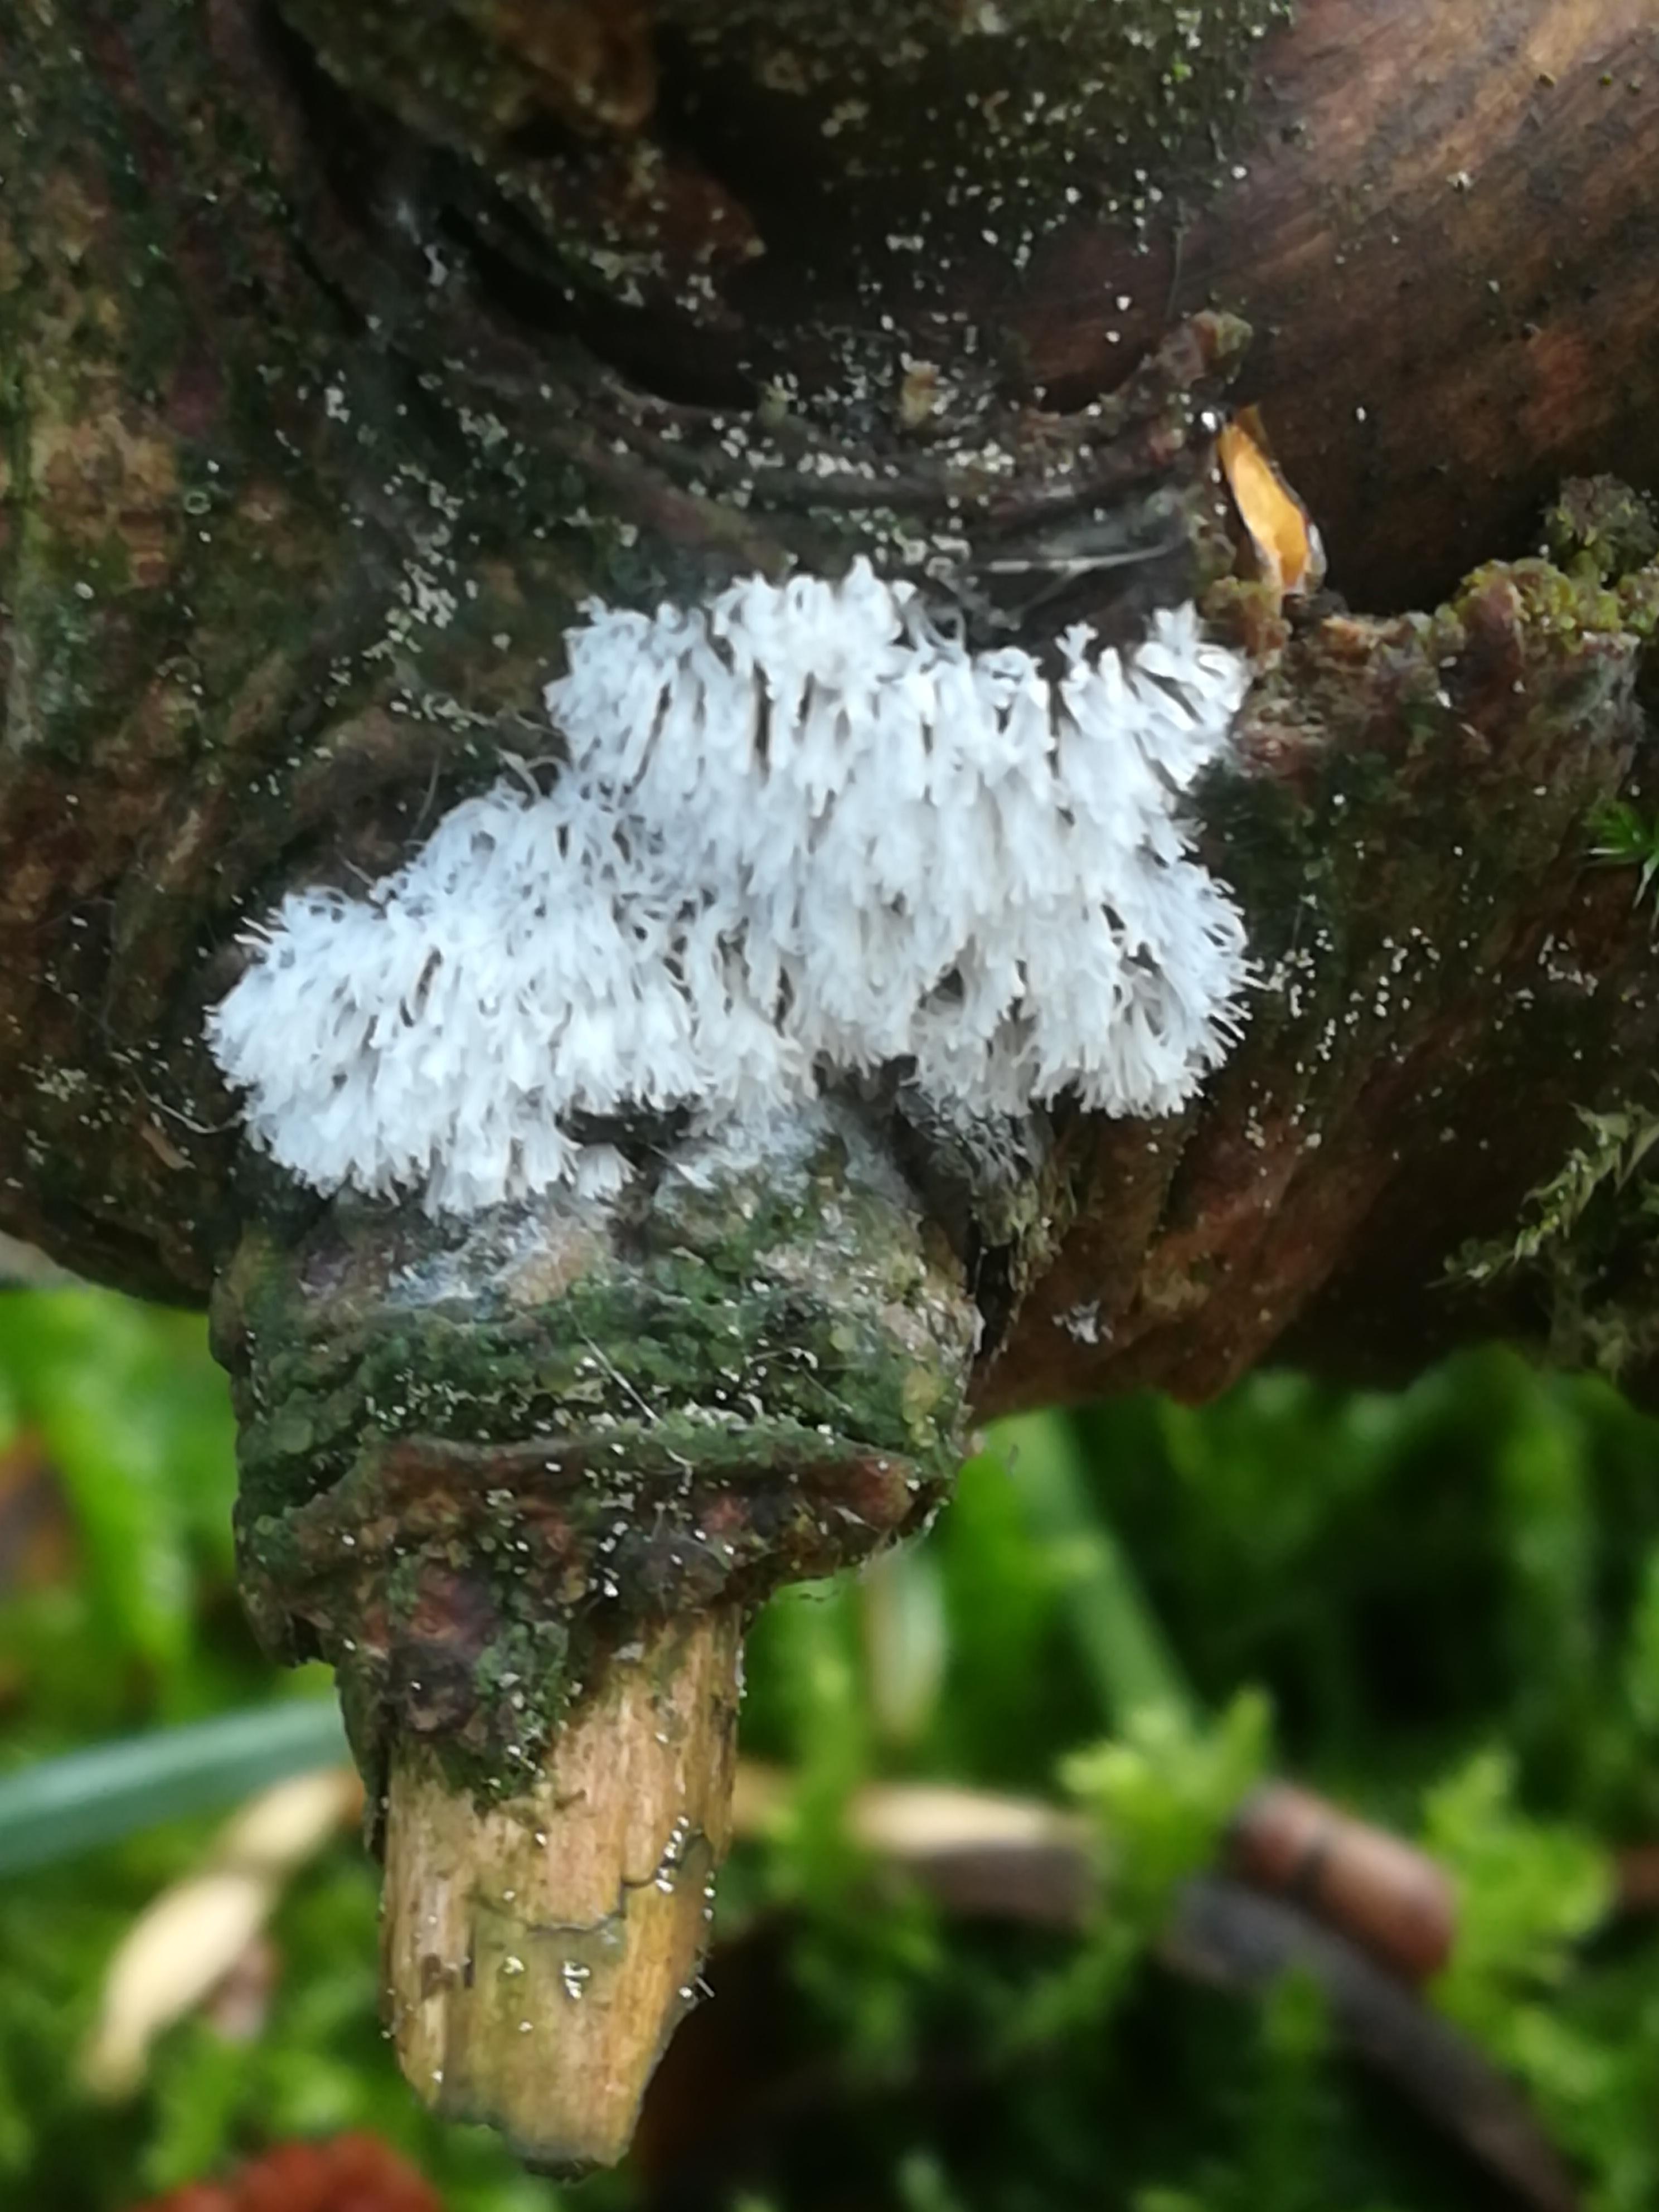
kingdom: Protozoa
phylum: Mycetozoa
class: Protosteliomycetes
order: Ceratiomyxales
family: Ceratiomyxaceae
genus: Ceratiomyxa
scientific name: Ceratiomyxa fruticulosa
